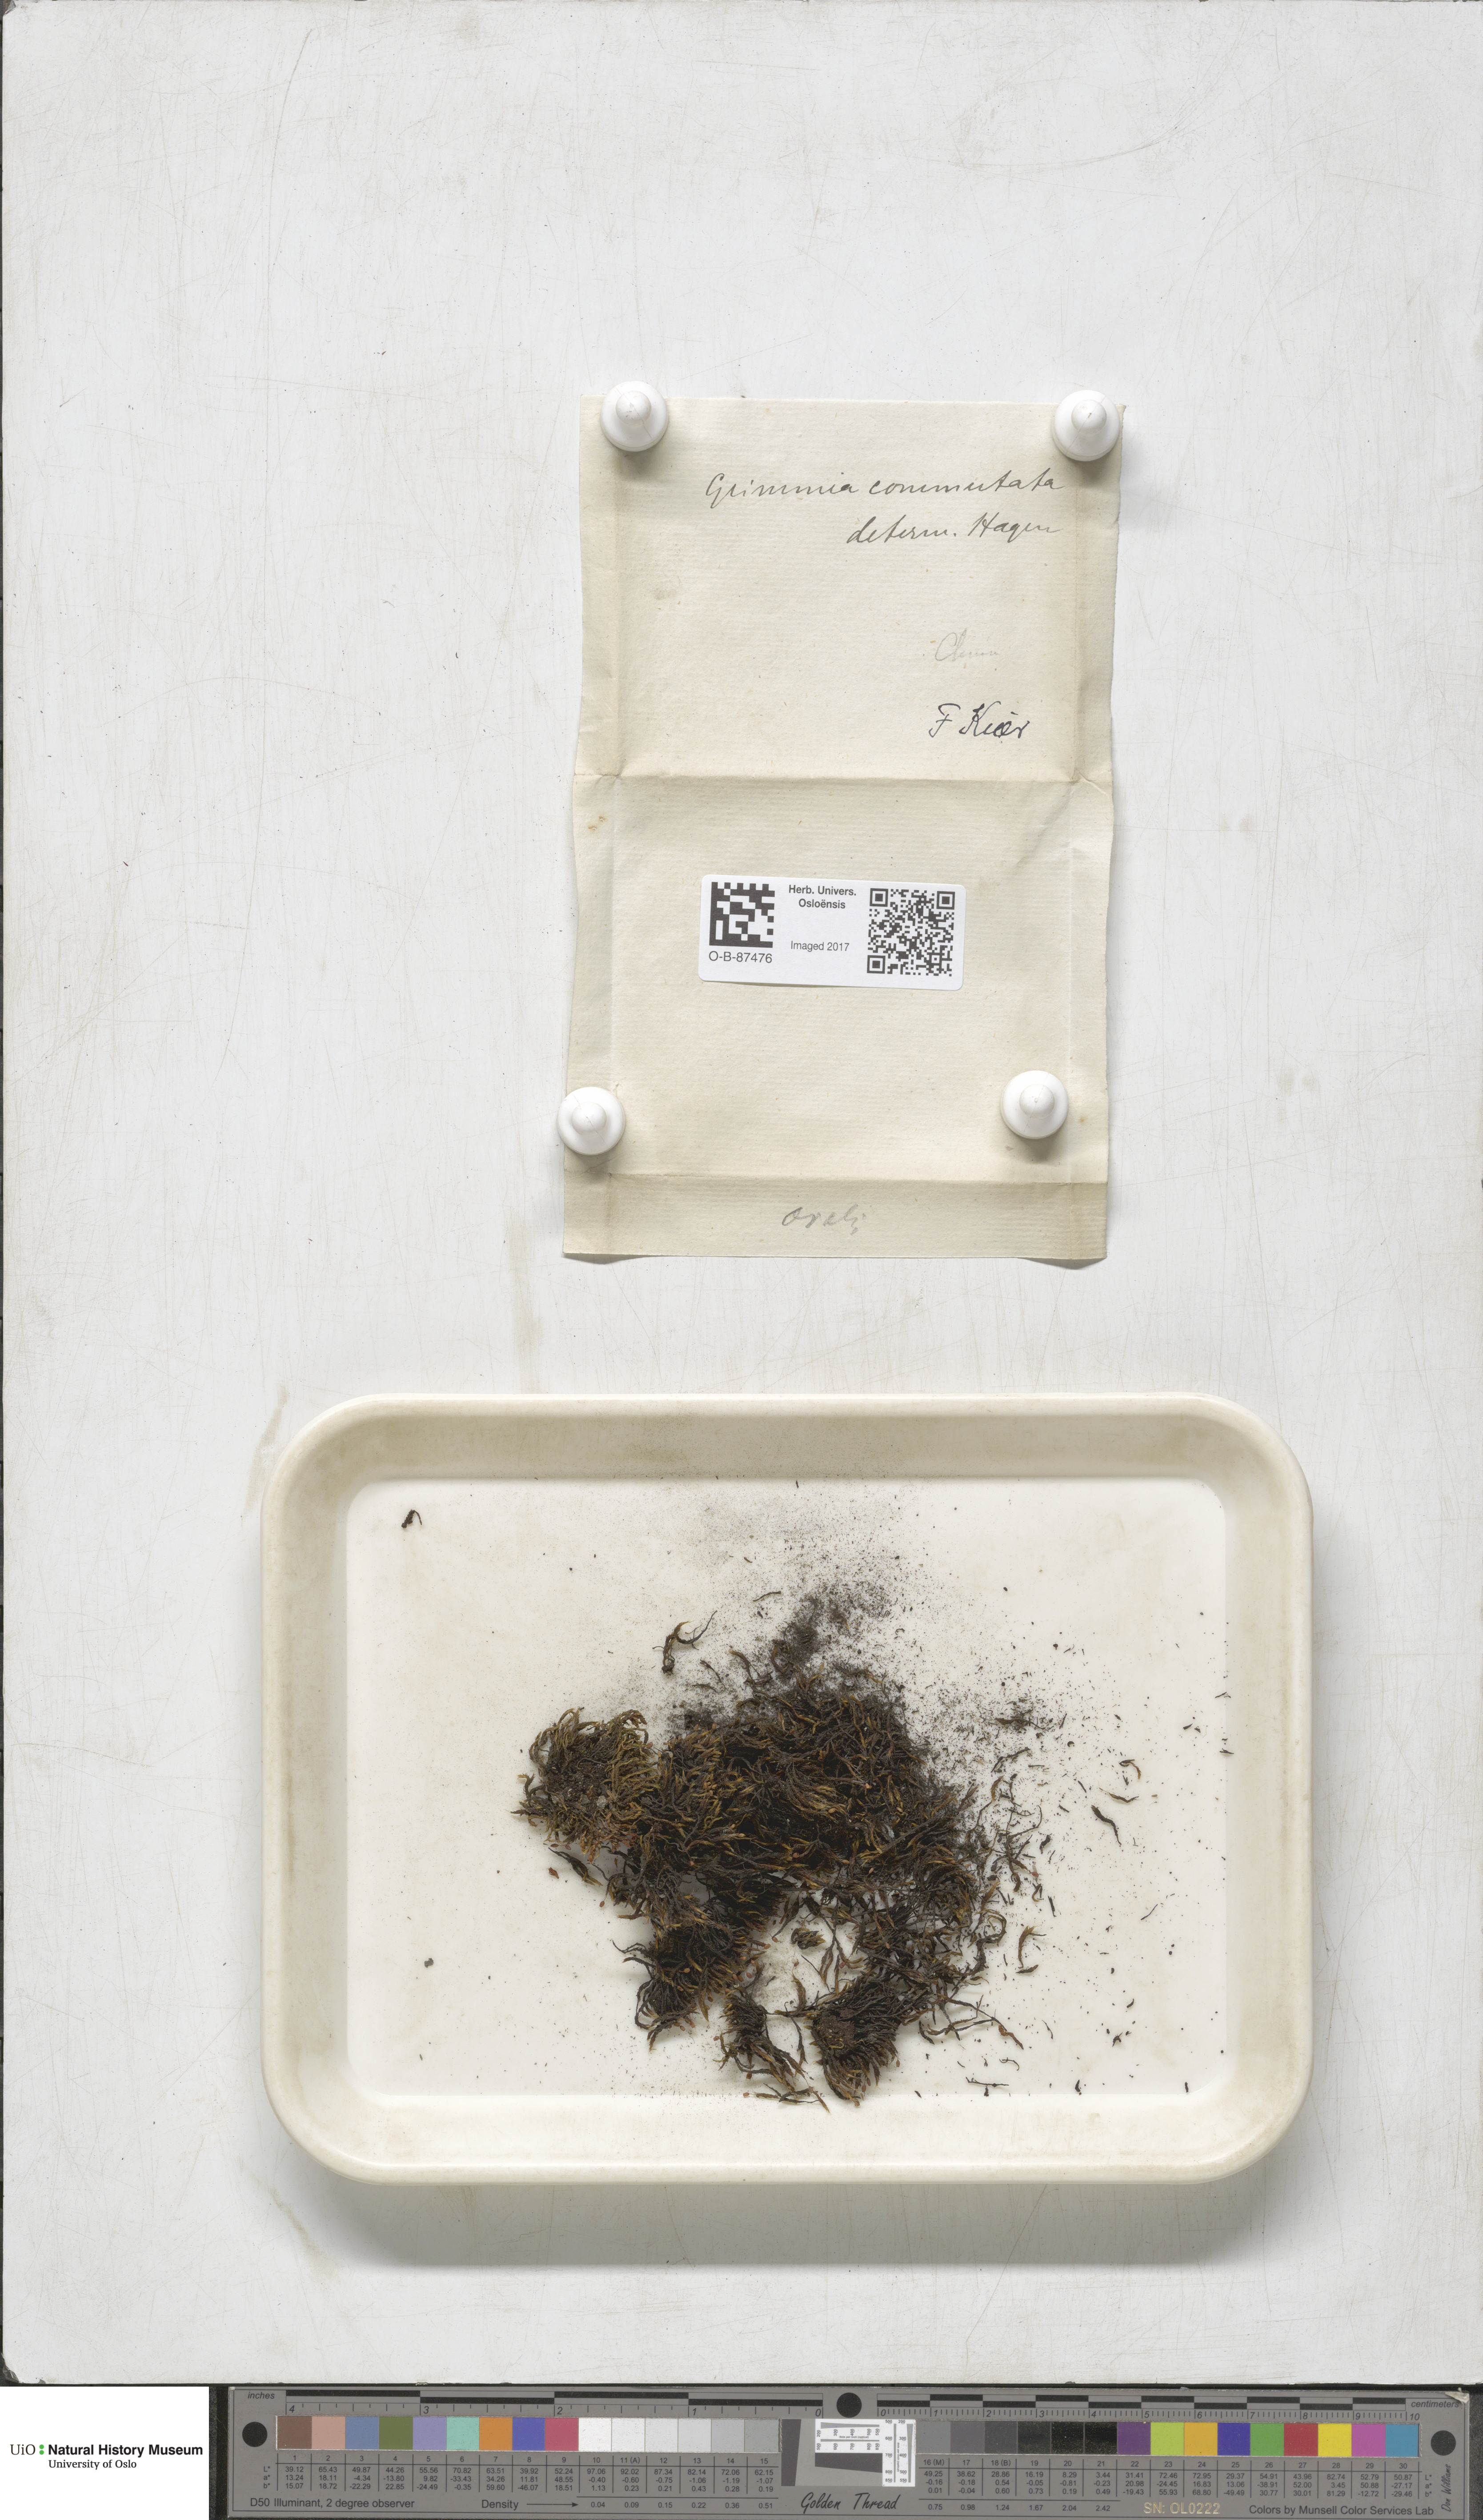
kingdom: Plantae
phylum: Bryophyta
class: Bryopsida
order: Grimmiales
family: Grimmiaceae
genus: Grimmia
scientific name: Grimmia ovalis
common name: Oval grimmia
